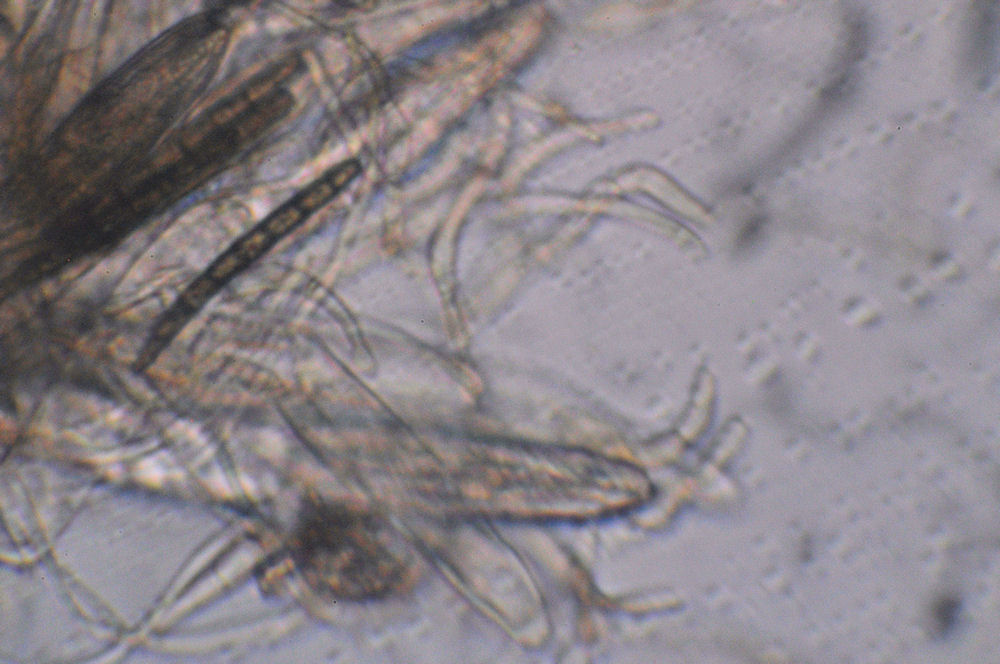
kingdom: Fungi
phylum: Ascomycota
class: Geoglossomycetes
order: Geoglossales
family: Geoglossaceae
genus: Geoglossum
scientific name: Geoglossum umbratile
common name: slank jordtunge
